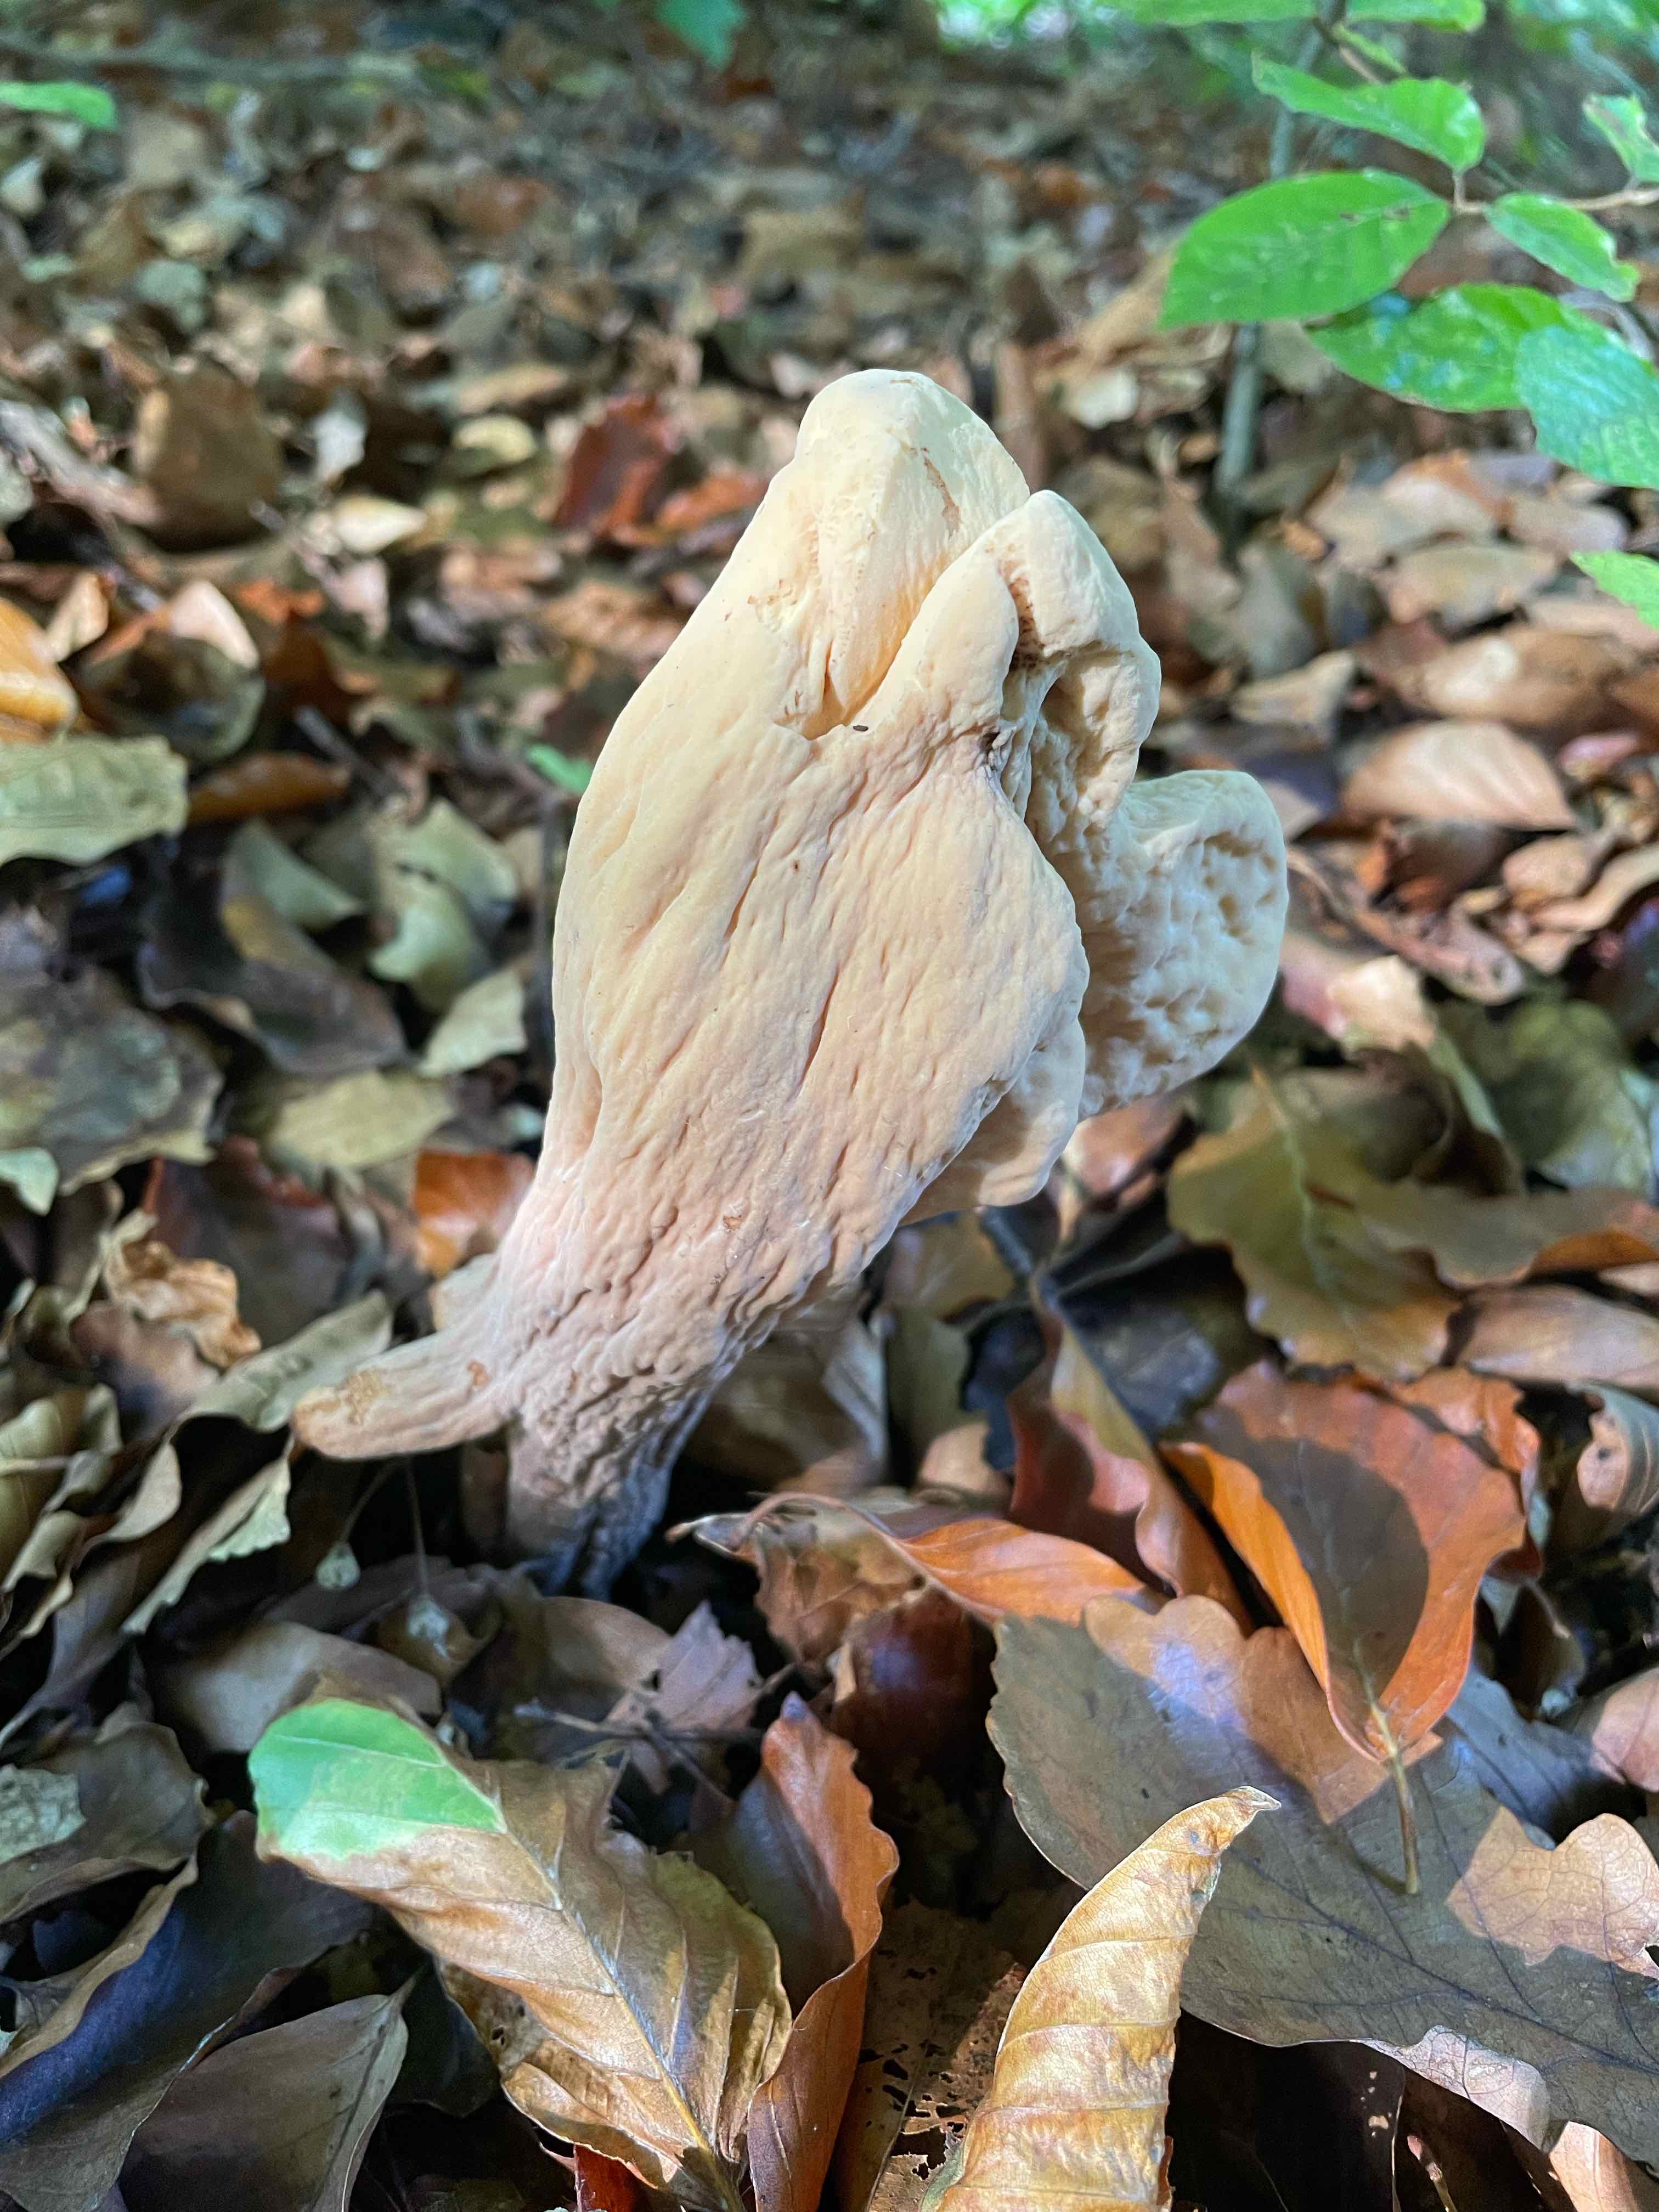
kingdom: Fungi
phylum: Basidiomycota
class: Agaricomycetes
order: Gomphales
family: Clavariadelphaceae
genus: Clavariadelphus
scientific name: Clavariadelphus pistillaris
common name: herkules-kæmpekølle
